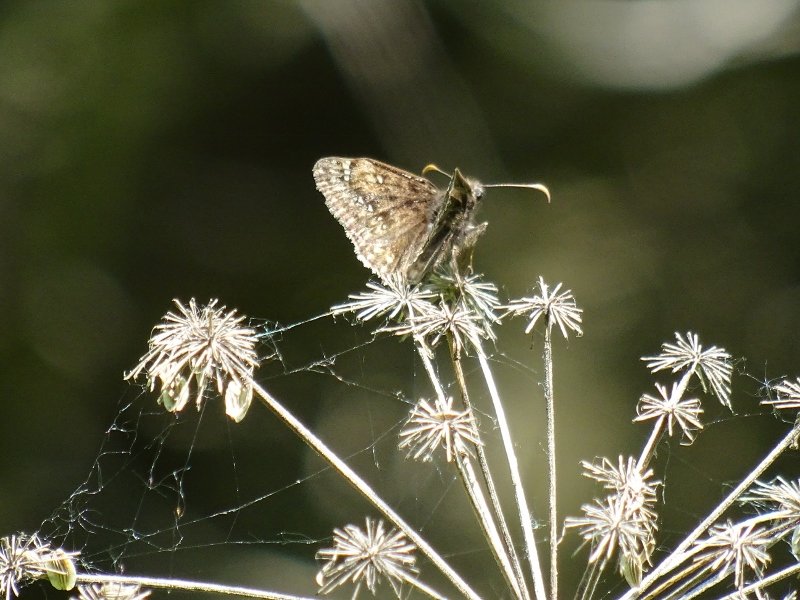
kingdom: Animalia
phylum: Arthropoda
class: Insecta
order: Lepidoptera
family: Hesperiidae
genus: Gesta
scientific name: Gesta
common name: Juvenal's Duskywing
